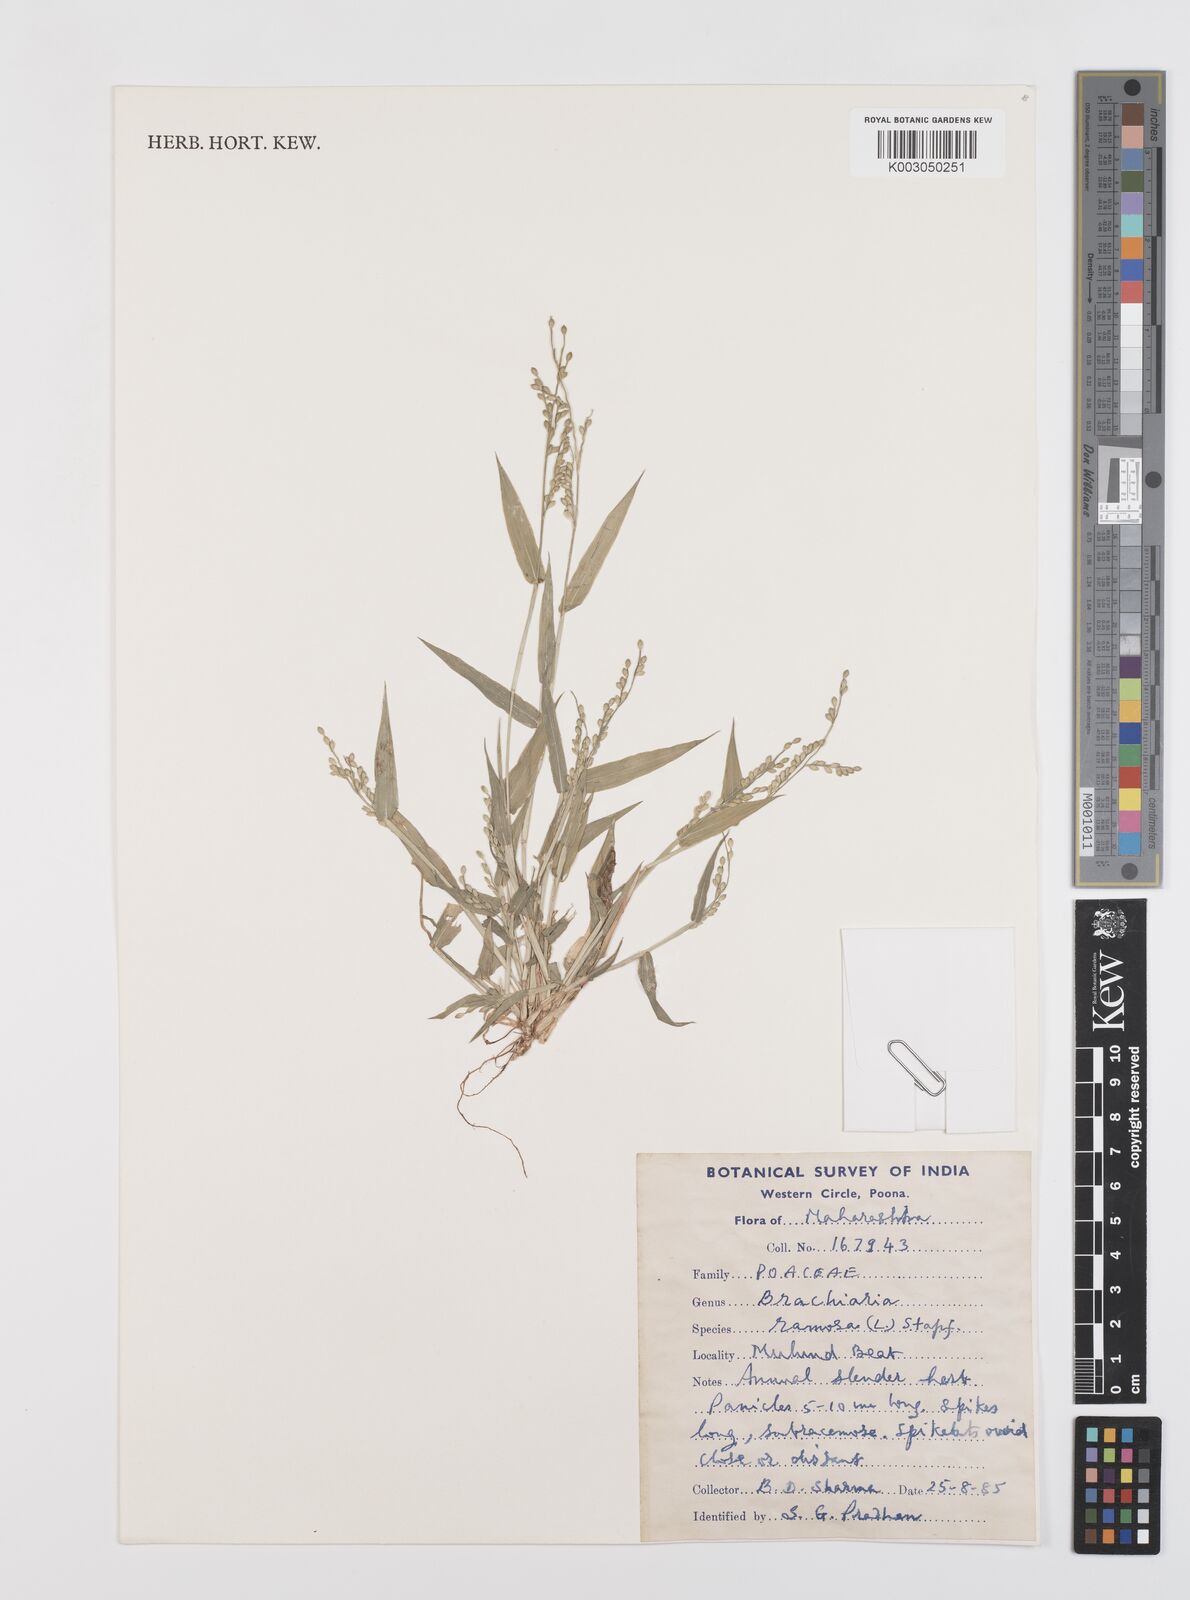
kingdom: Plantae
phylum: Tracheophyta
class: Liliopsida
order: Poales
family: Poaceae
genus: Urochloa
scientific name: Urochloa ramosa
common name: Browntop millet
